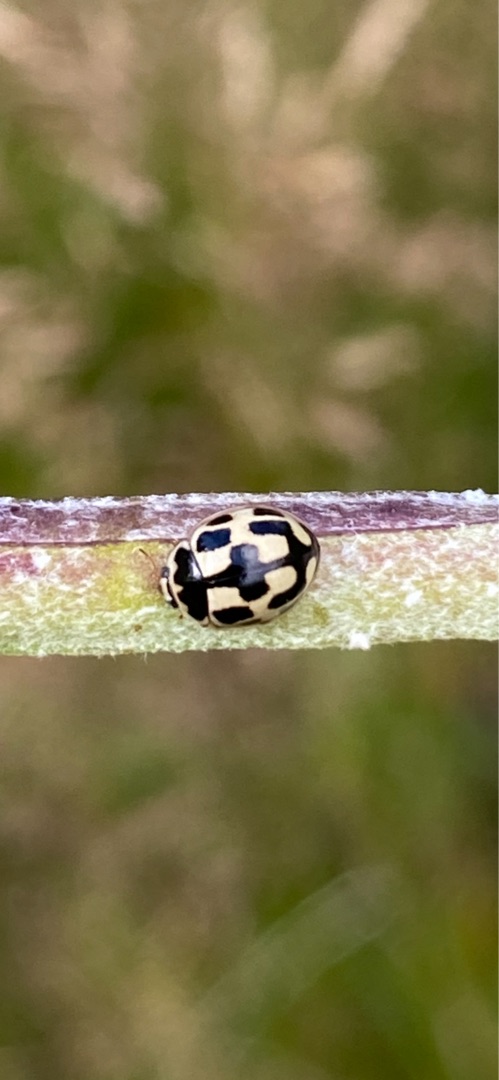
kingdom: Animalia
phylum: Arthropoda
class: Insecta
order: Coleoptera
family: Coccinellidae
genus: Propylaea
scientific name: Propylaea quatuordecimpunctata
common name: Skakbræt
